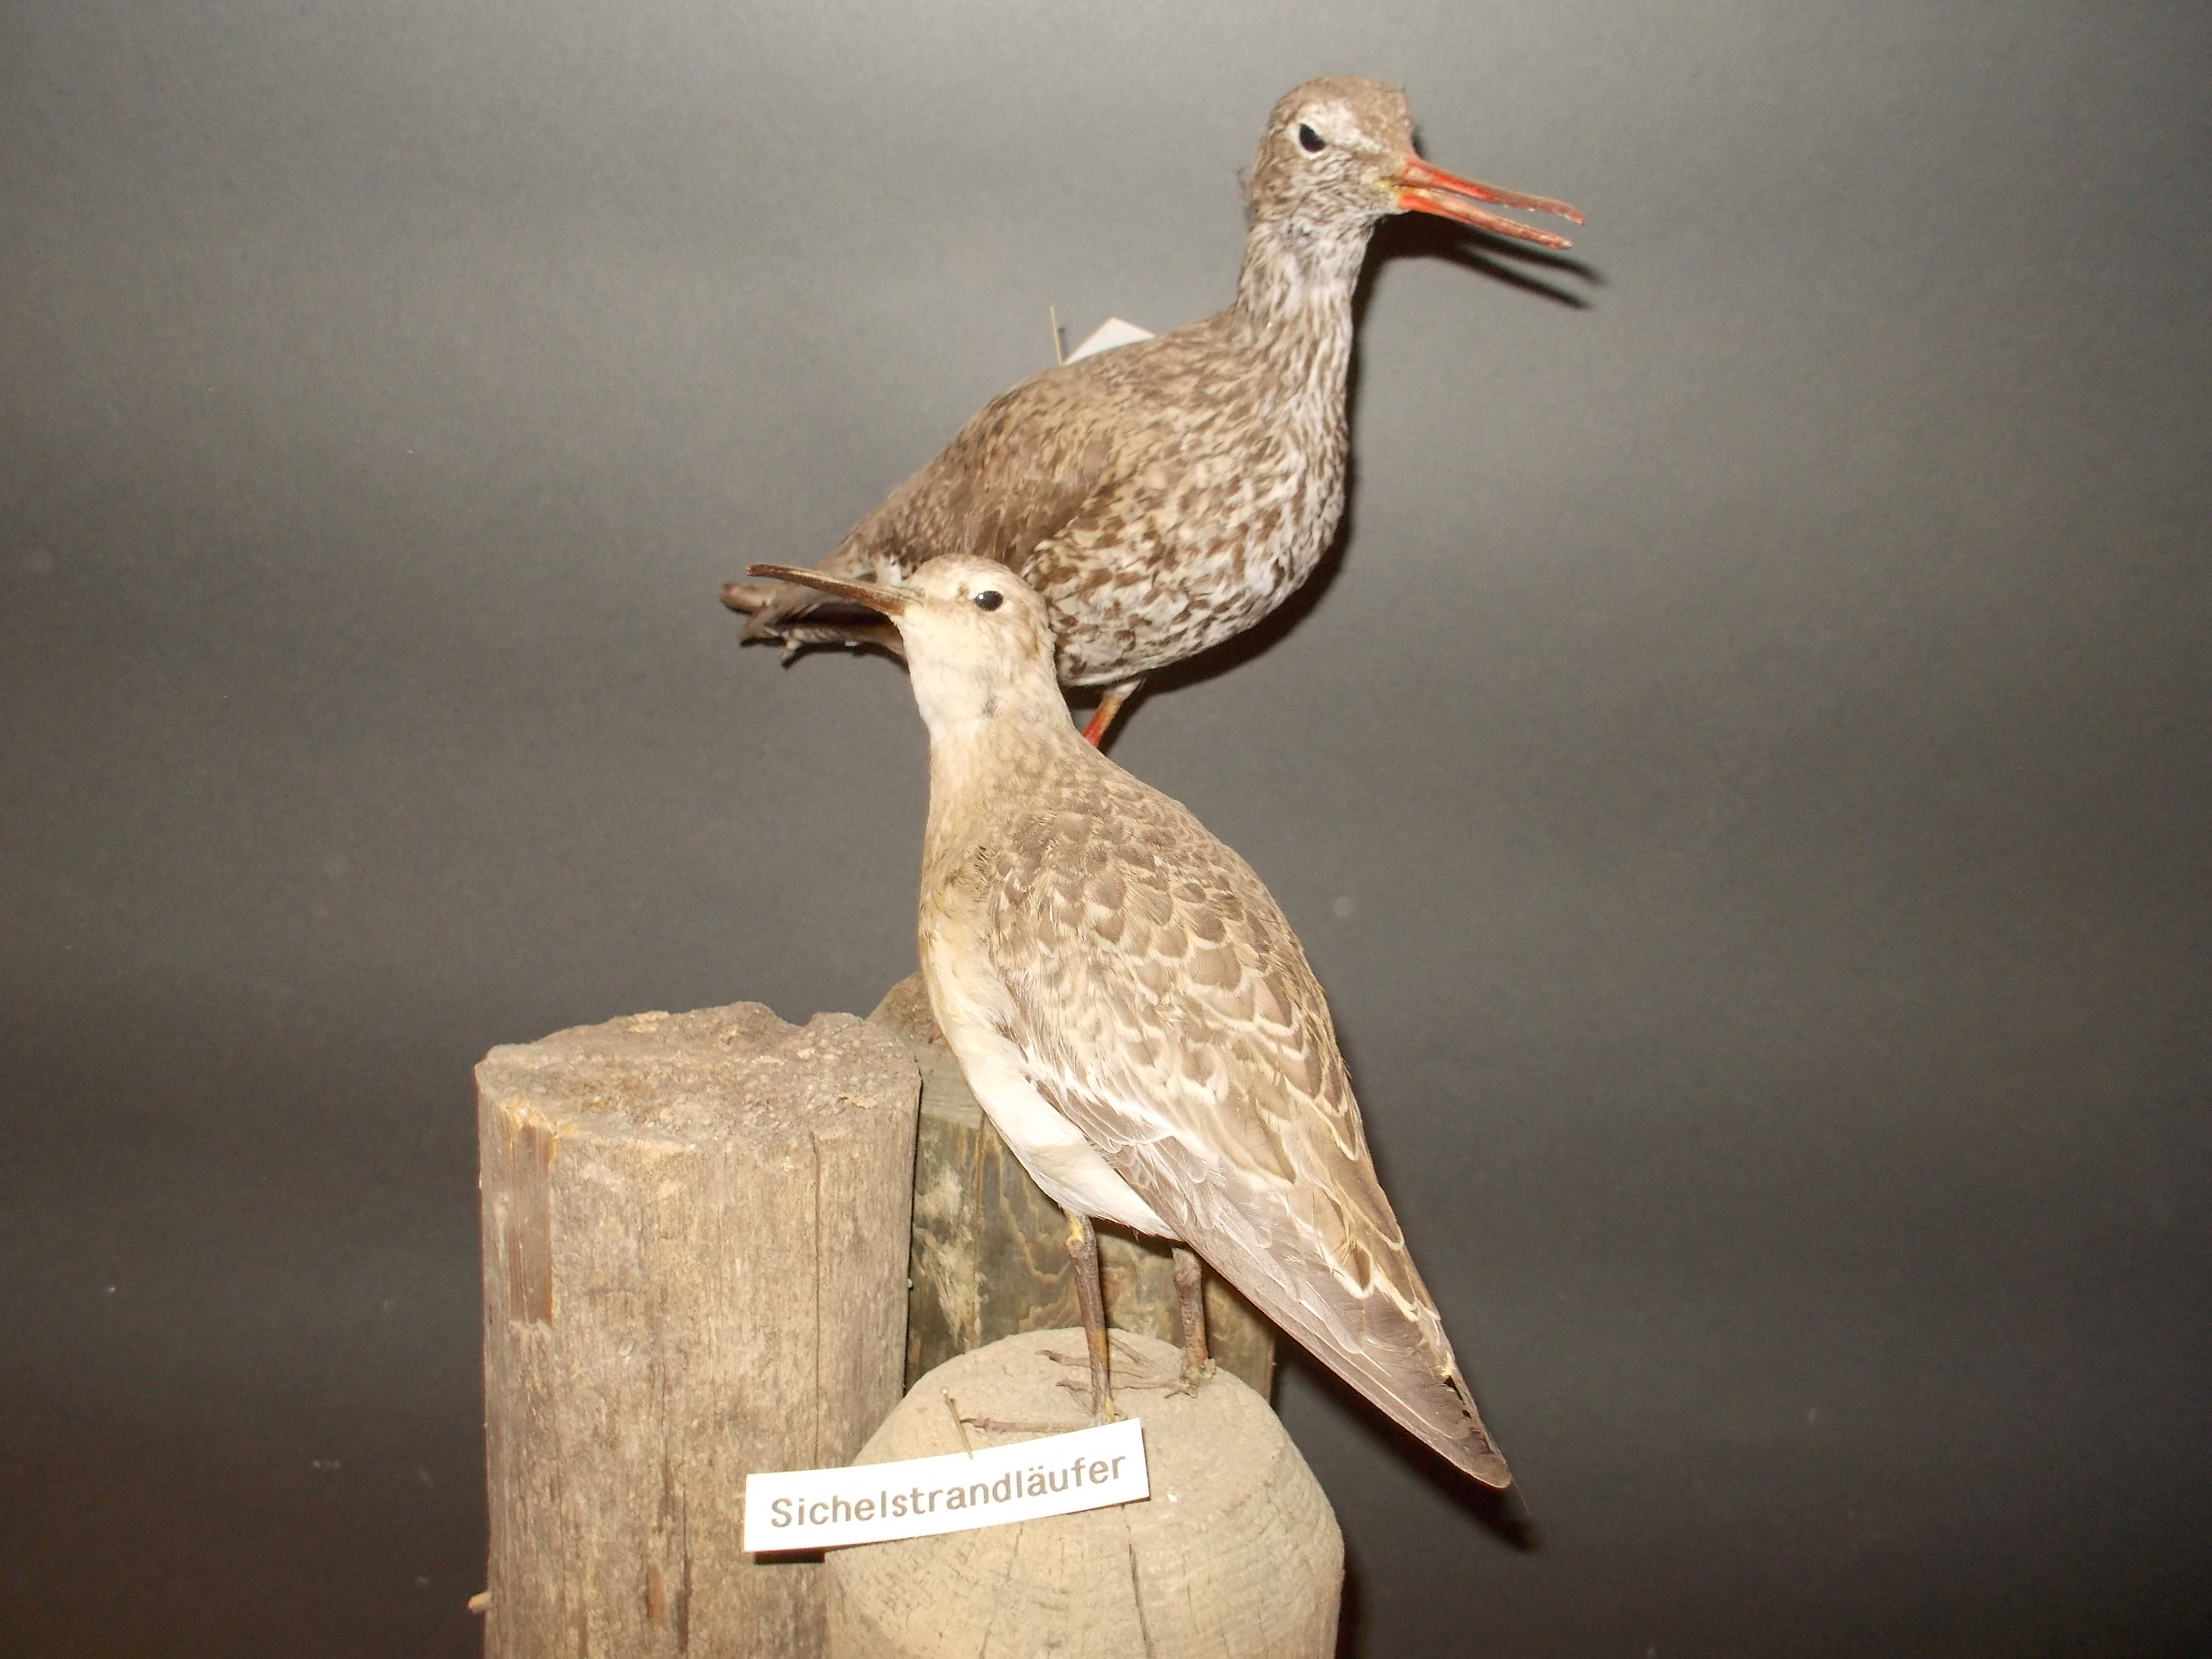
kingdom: Animalia
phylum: Chordata
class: Aves
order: Charadriiformes
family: Scolopacidae
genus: Calidris
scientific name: Calidris ferruginea
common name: Curlew sandpiper
